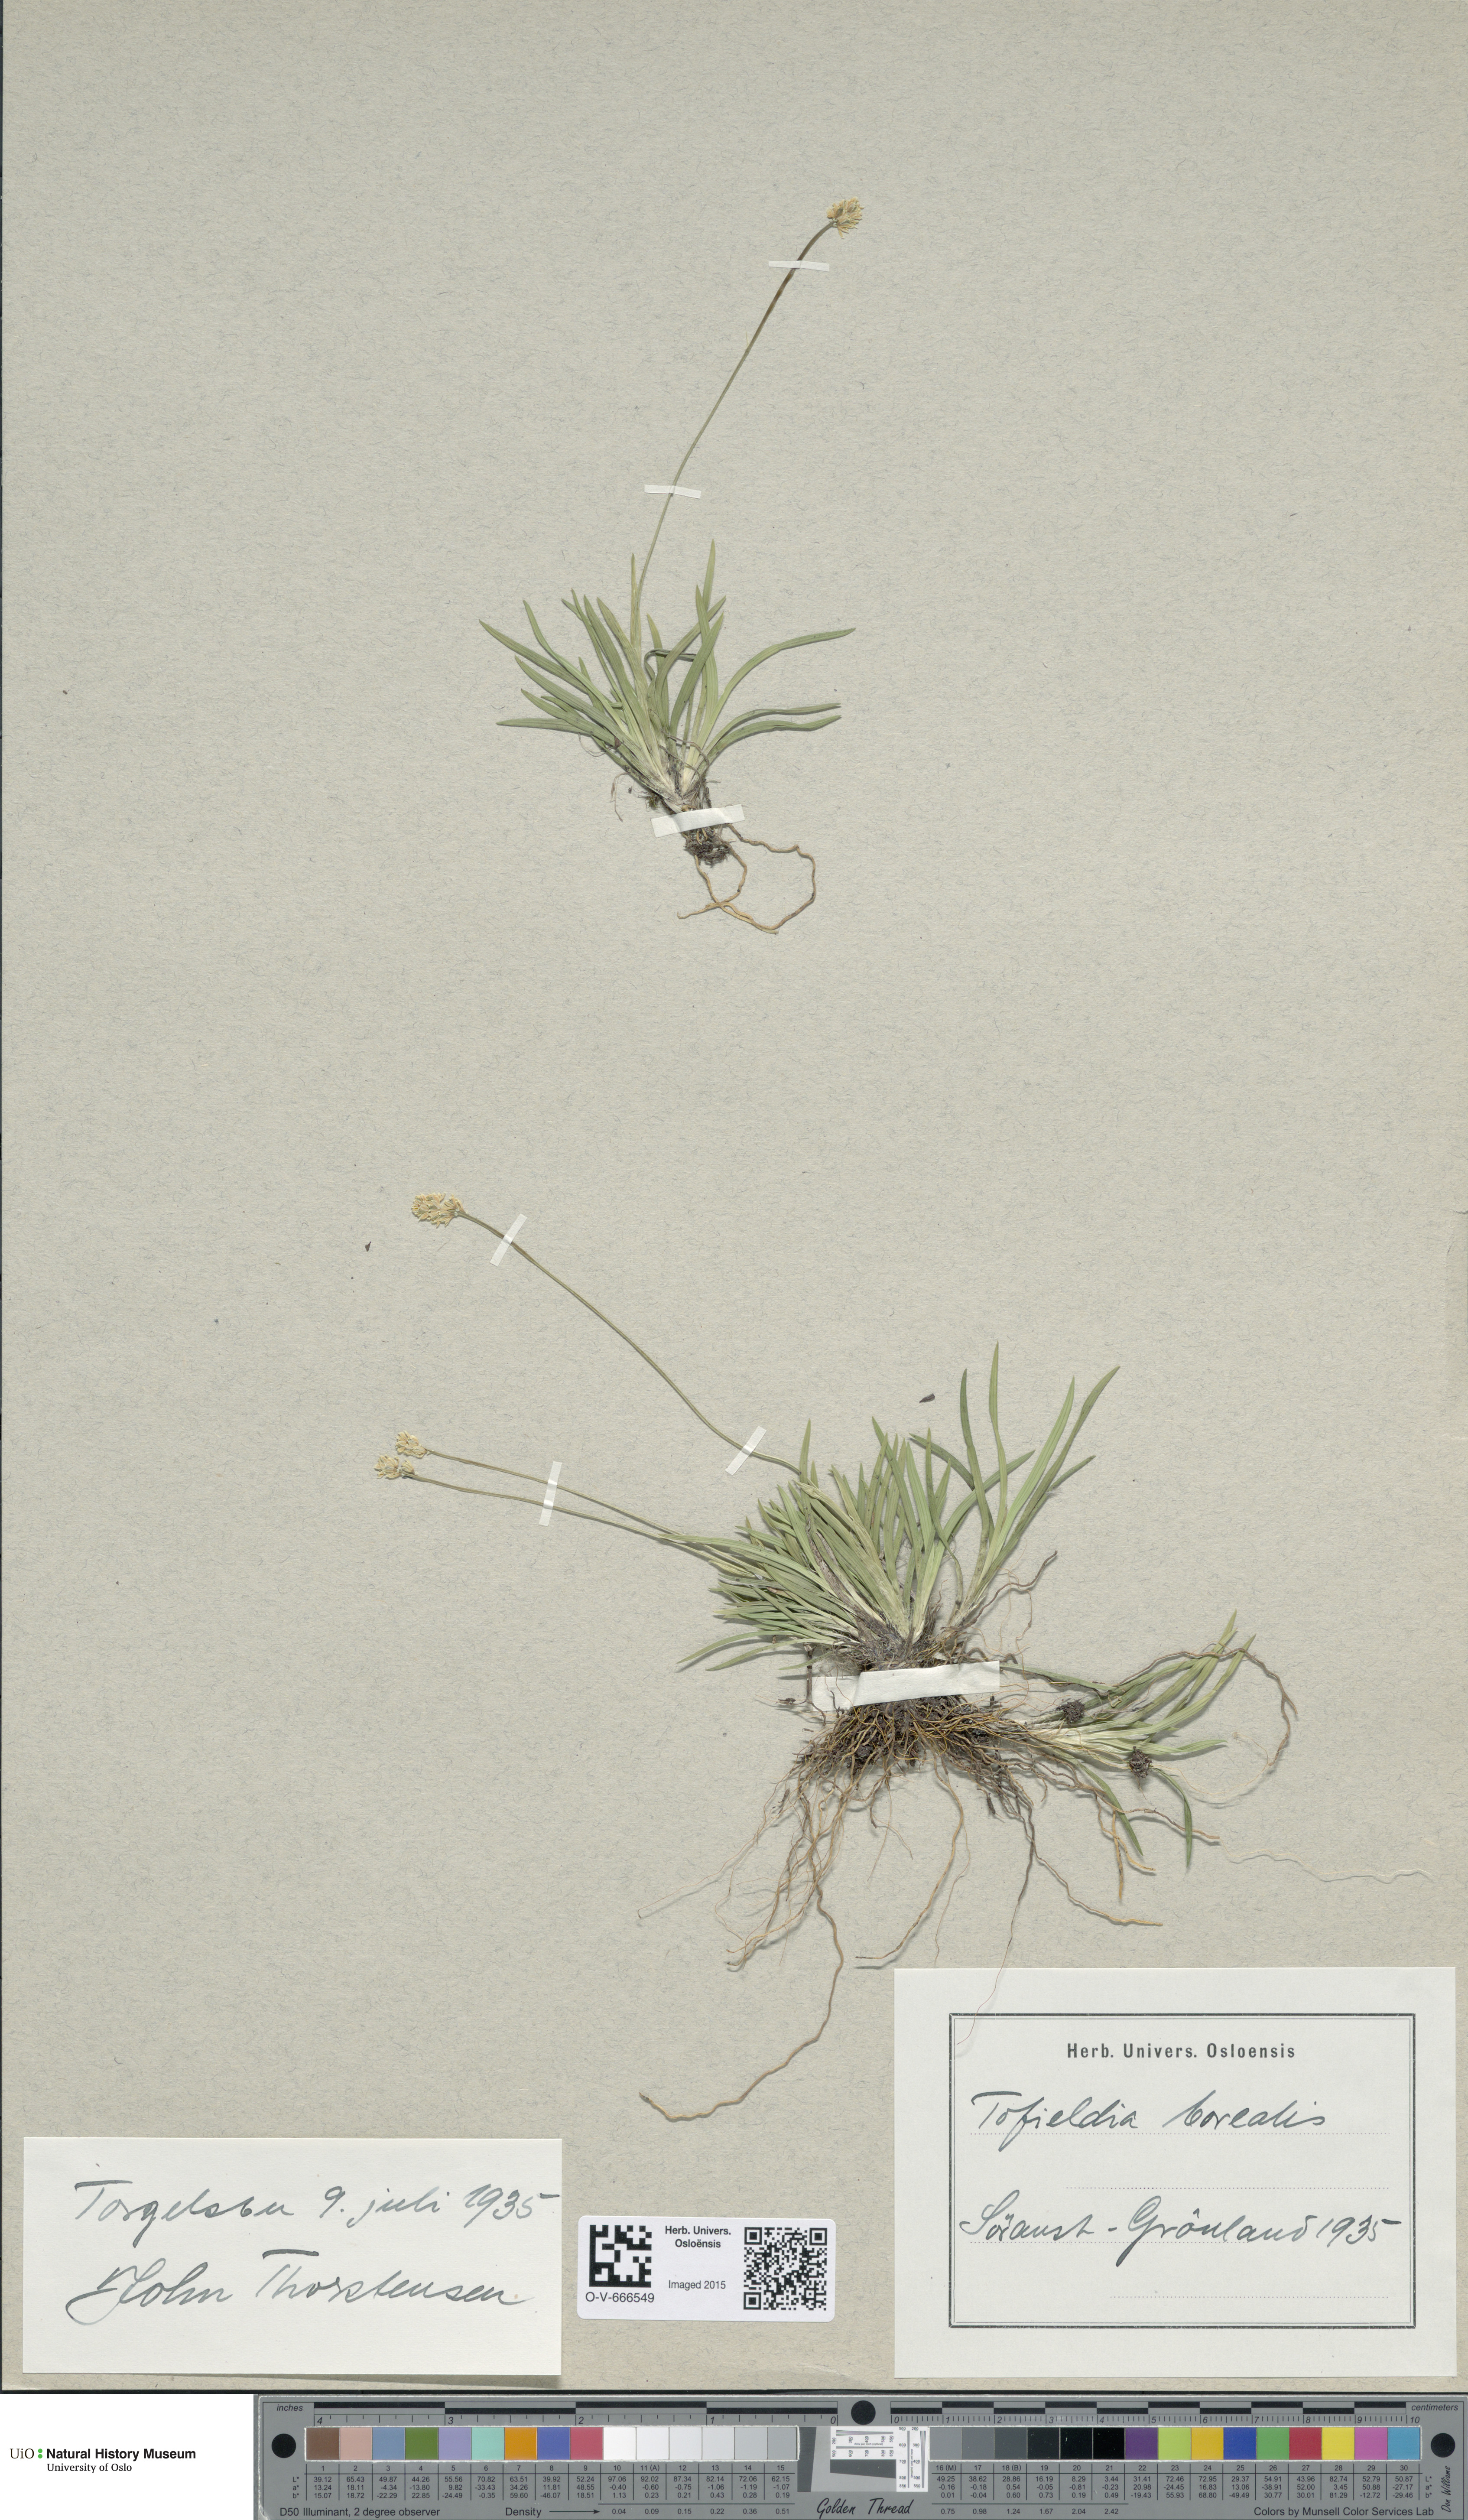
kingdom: Plantae
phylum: Tracheophyta
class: Liliopsida
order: Alismatales
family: Tofieldiaceae
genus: Tofieldia
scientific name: Tofieldia pusilla
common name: Scottish false asphodel
